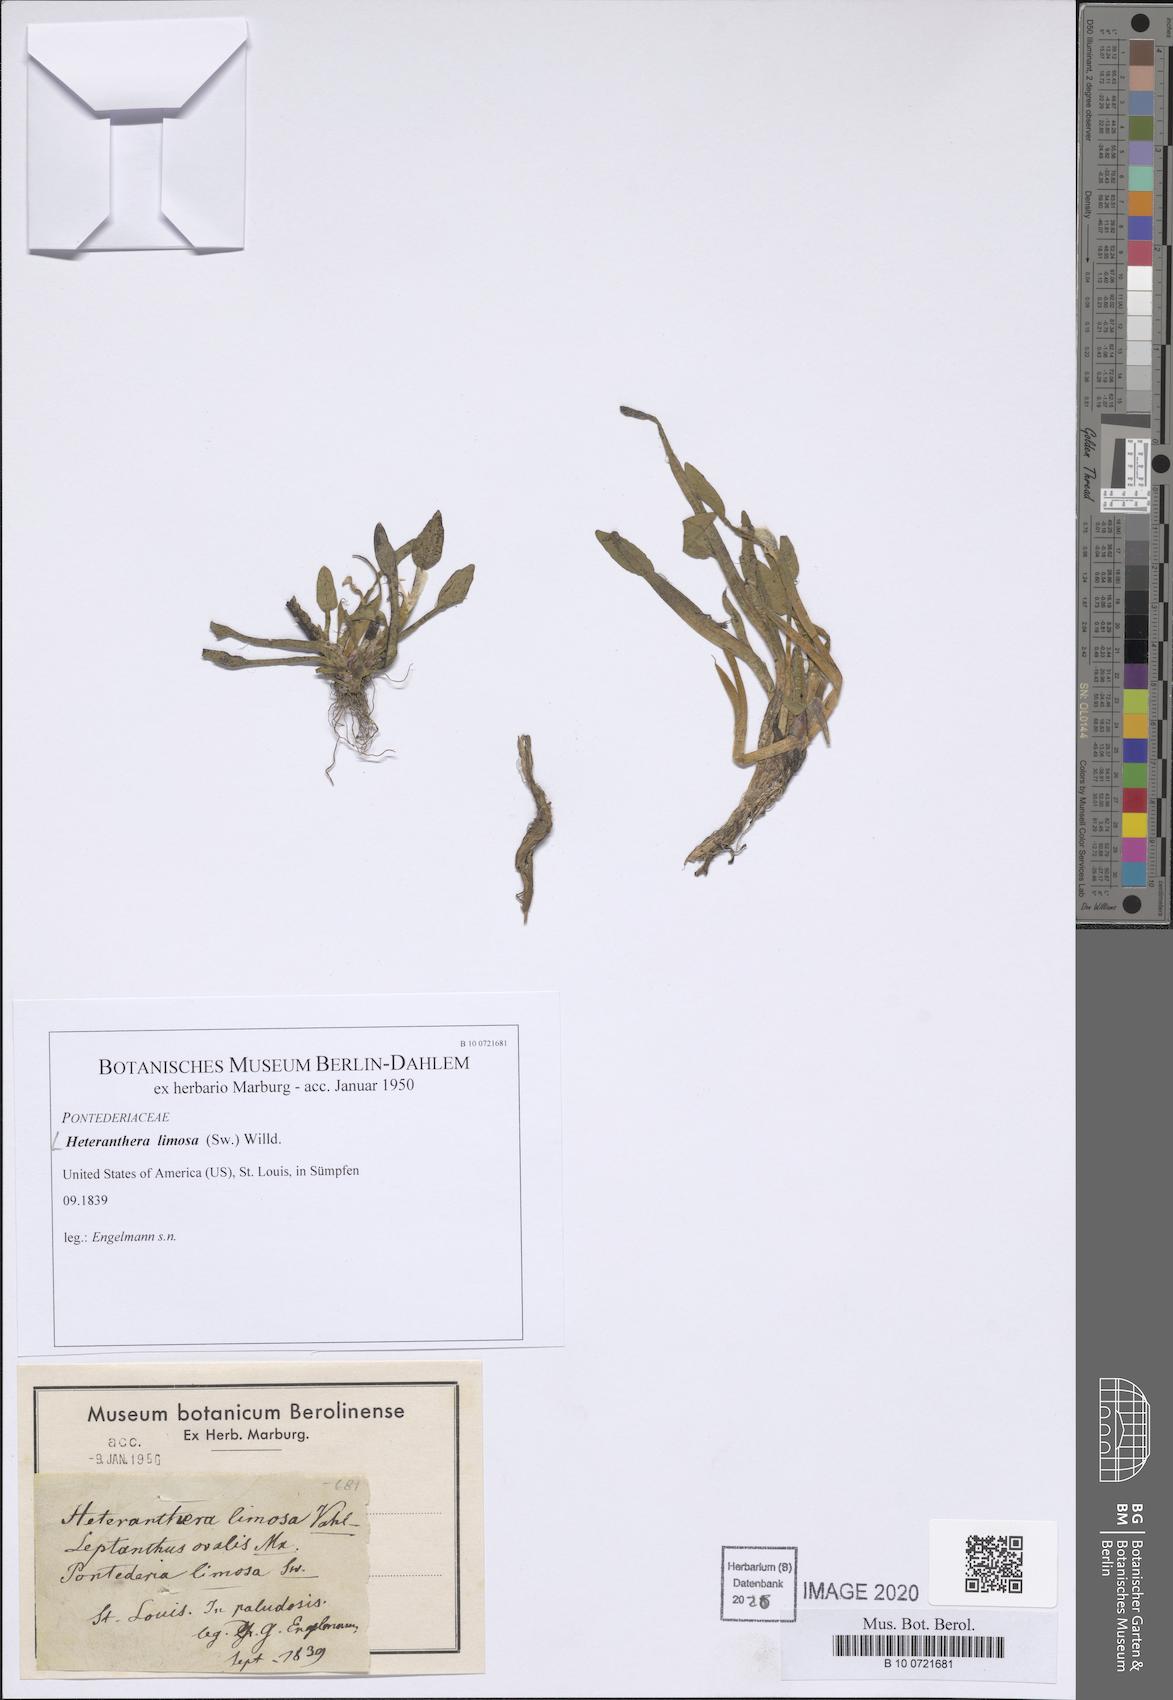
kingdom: Plantae
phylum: Tracheophyta
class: Liliopsida
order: Commelinales
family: Pontederiaceae
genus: Heteranthera
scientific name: Heteranthera limosa
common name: Blue mud-plantain
